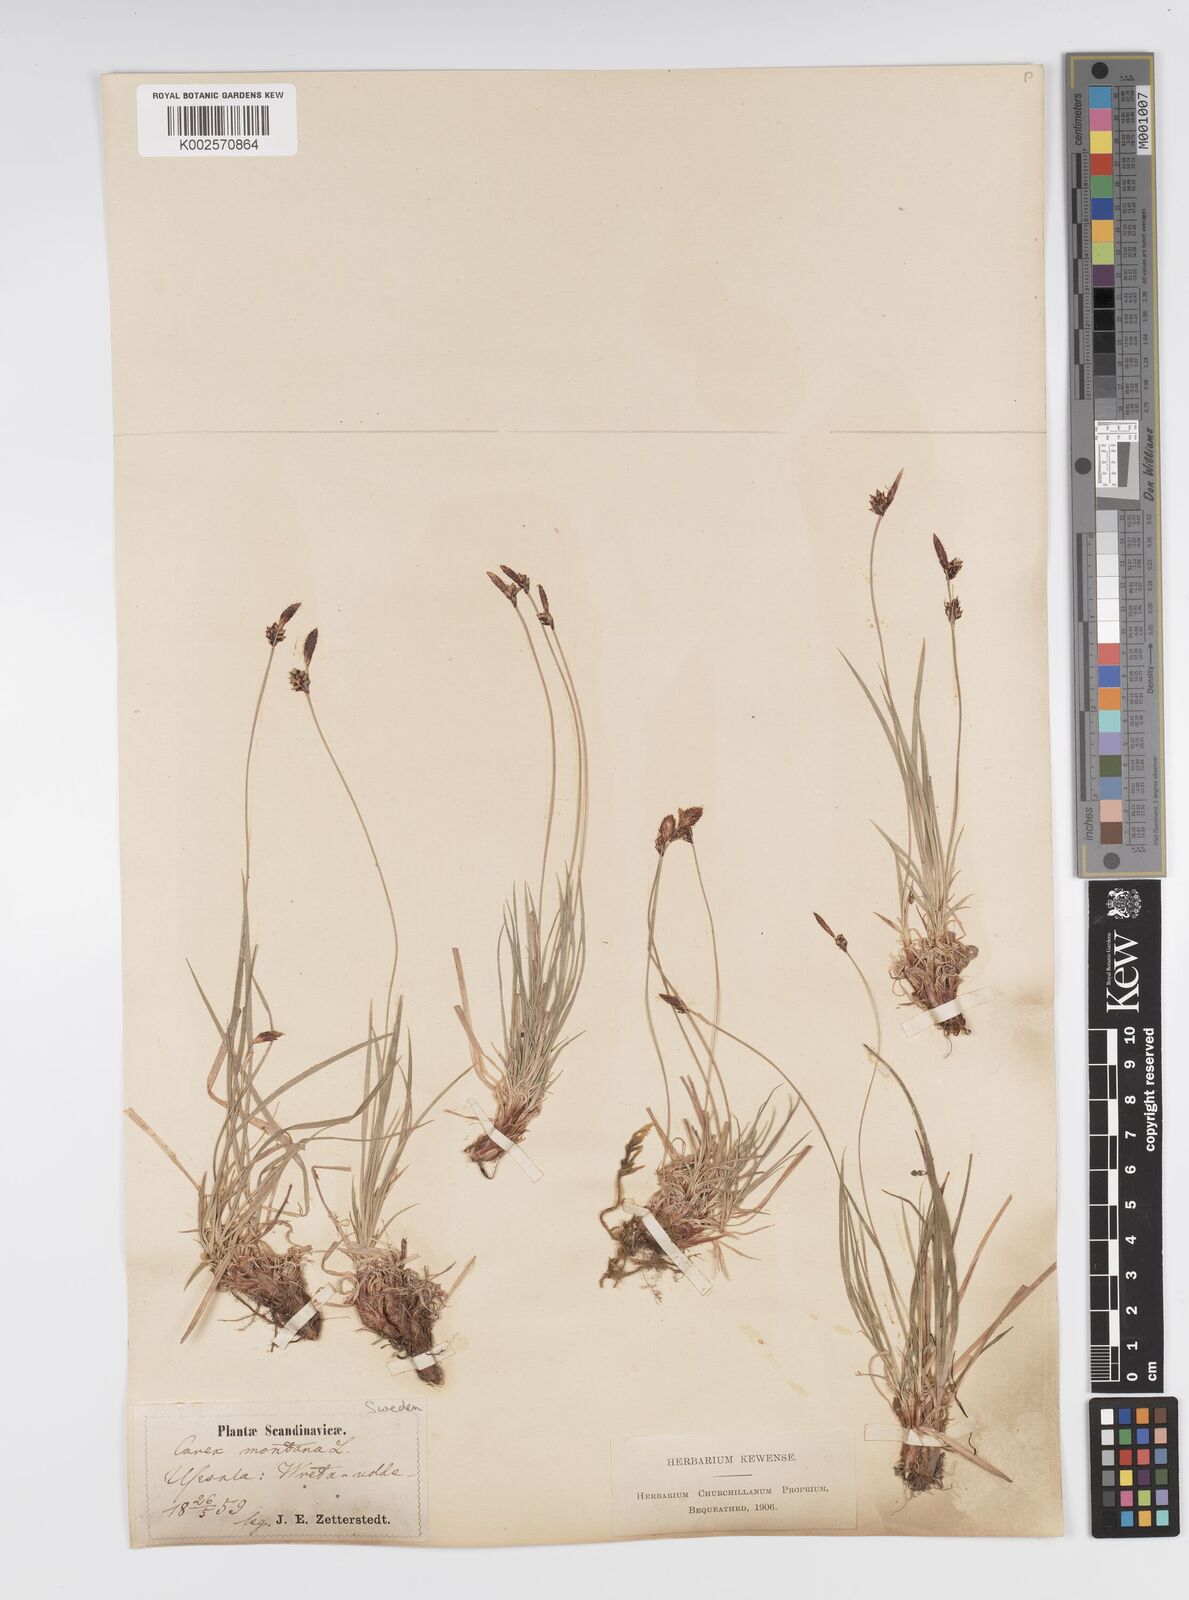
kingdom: Plantae
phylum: Tracheophyta
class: Liliopsida
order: Poales
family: Cyperaceae
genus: Carex
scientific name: Carex montana
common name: Soft-leaved sedge
